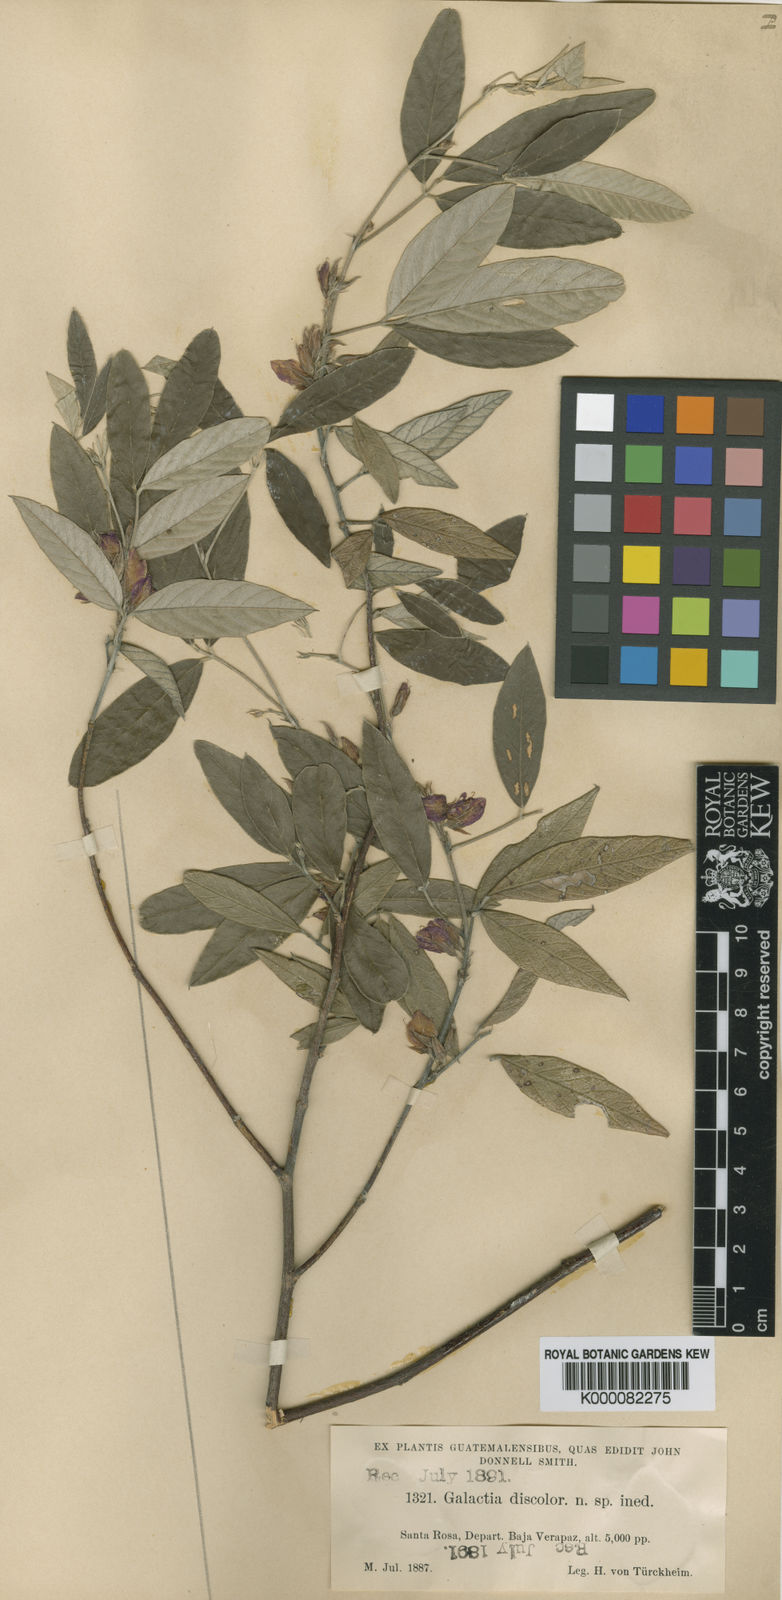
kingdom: Plantae
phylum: Tracheophyta
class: Magnoliopsida
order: Fabales
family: Fabaceae
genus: Galactia
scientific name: Galactia jussiaeana
